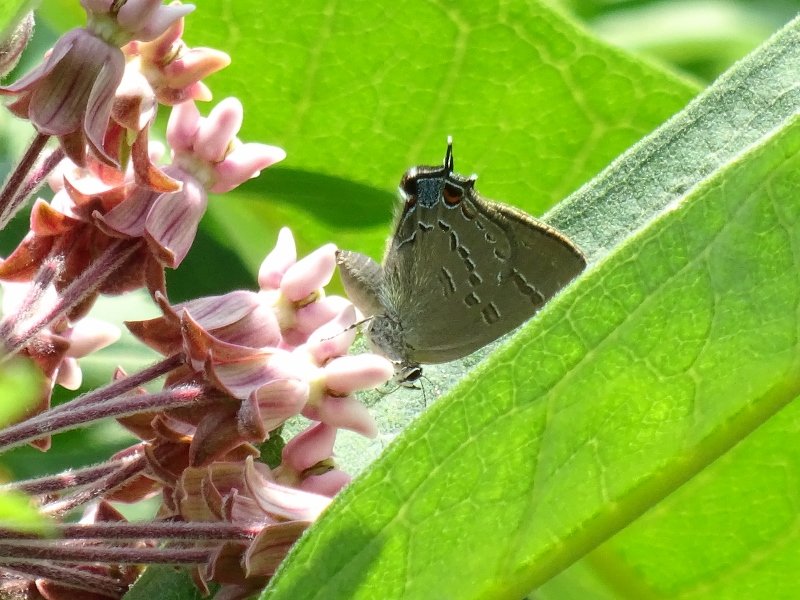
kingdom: Animalia
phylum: Arthropoda
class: Insecta
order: Lepidoptera
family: Lycaenidae
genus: Satyrium
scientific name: Satyrium calanus
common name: Banded Hairstreak
